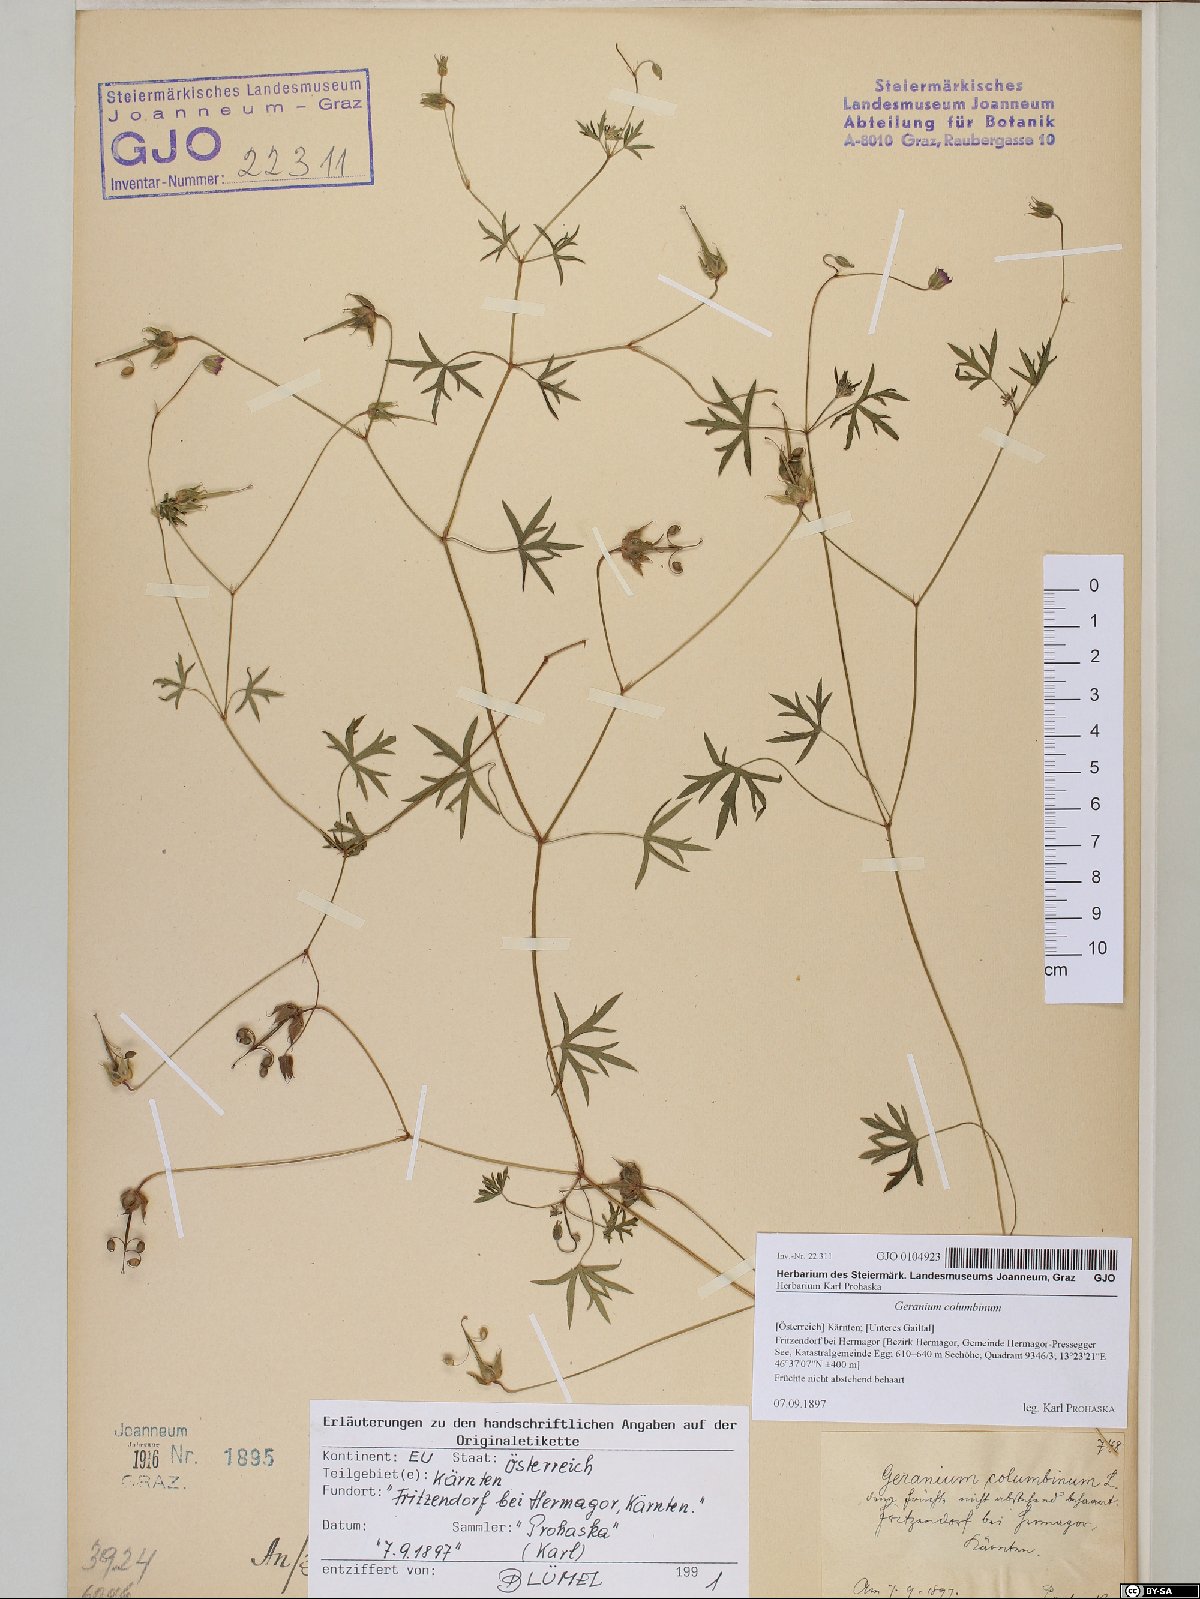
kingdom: Plantae
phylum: Tracheophyta
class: Magnoliopsida
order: Geraniales
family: Geraniaceae
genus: Geranium
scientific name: Geranium columbinum
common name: Long-stalked crane's-bill
